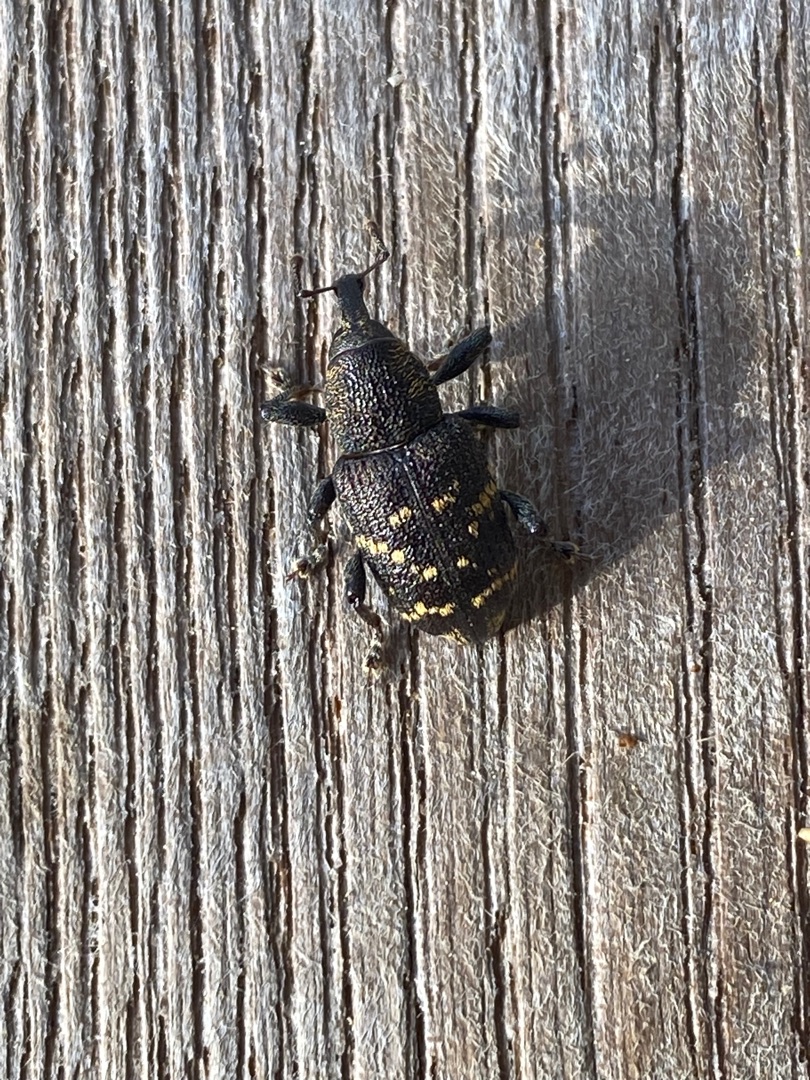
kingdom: Animalia
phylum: Arthropoda
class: Insecta
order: Coleoptera
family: Curculionidae
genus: Hylobius
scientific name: Hylobius abietis
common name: Stor nåletræsnudebille
